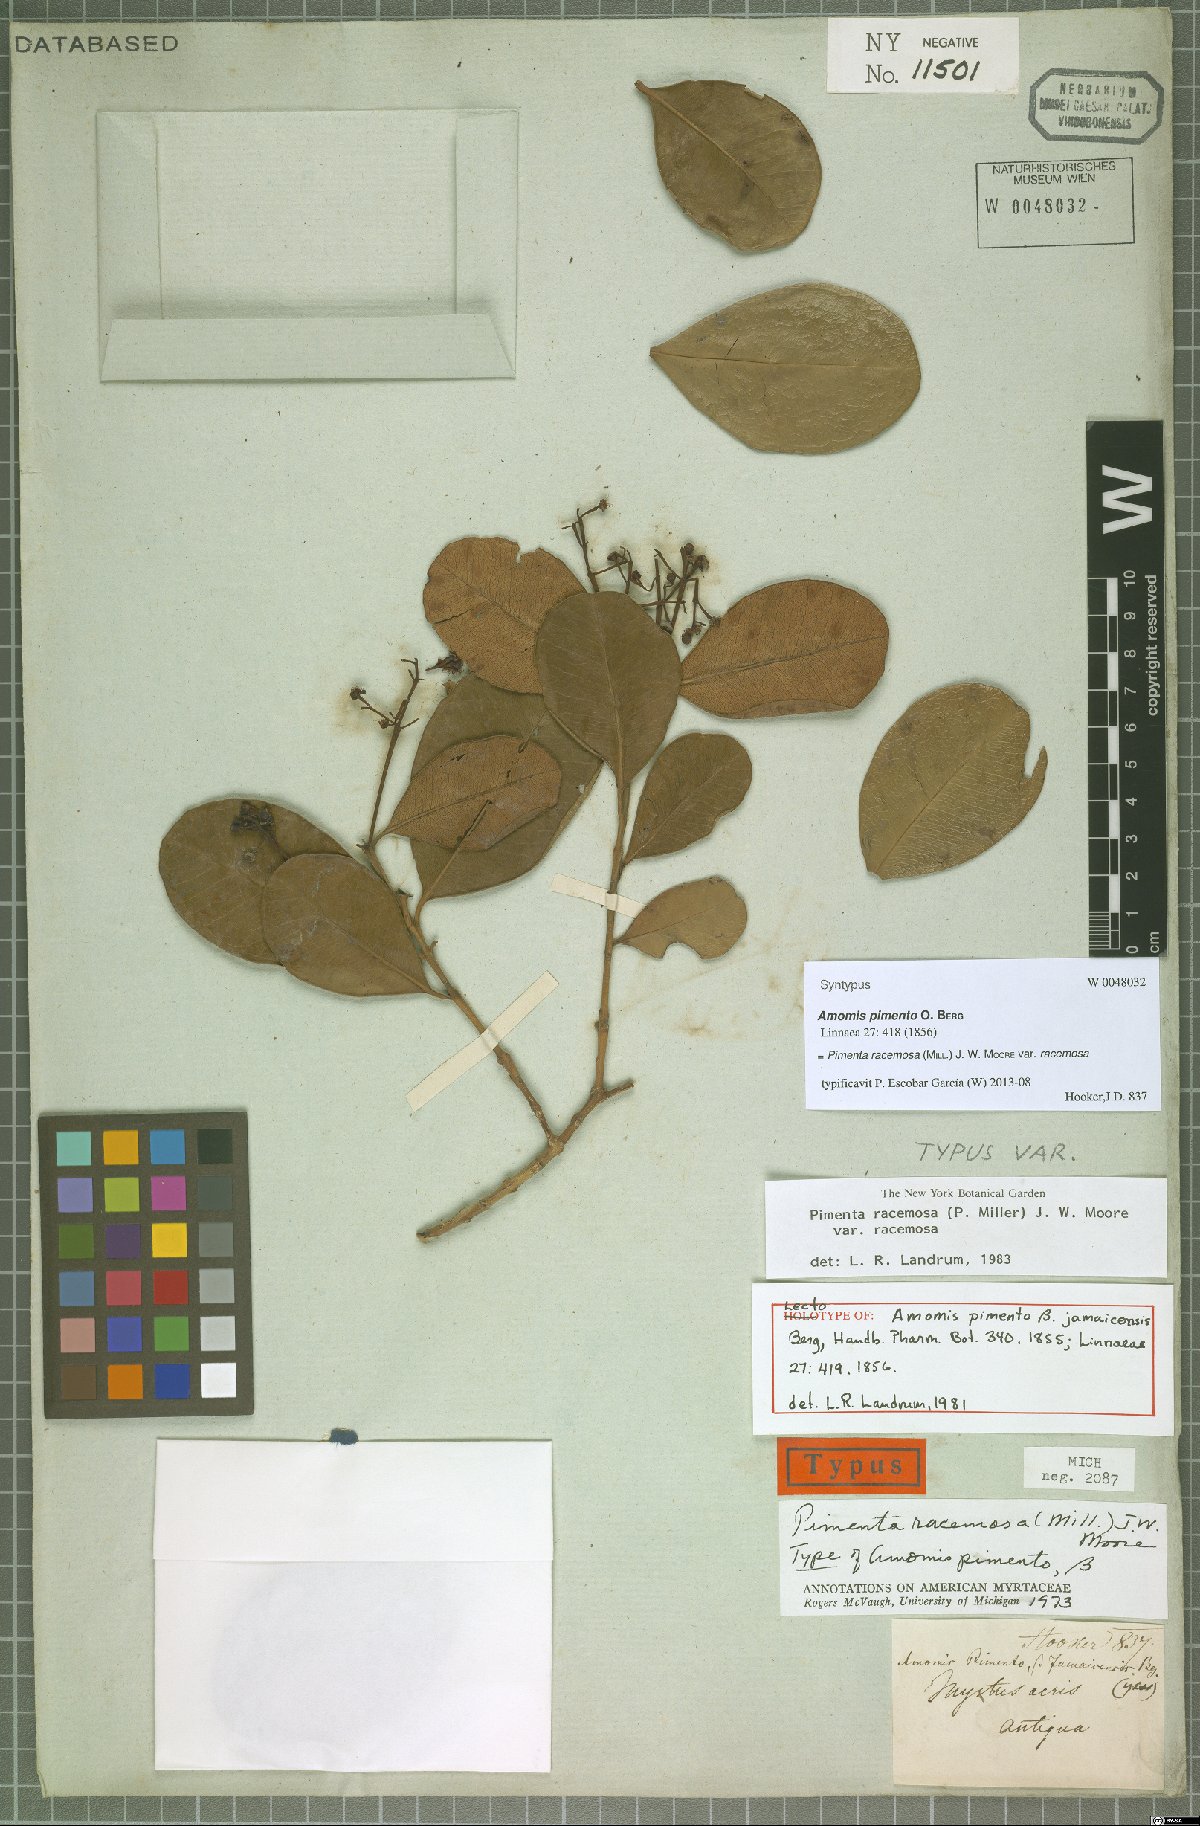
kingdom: Plantae
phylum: Tracheophyta
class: Magnoliopsida
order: Myrtales
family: Myrtaceae
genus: Pimenta
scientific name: Pimenta racemosa
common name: Bay rum tree
